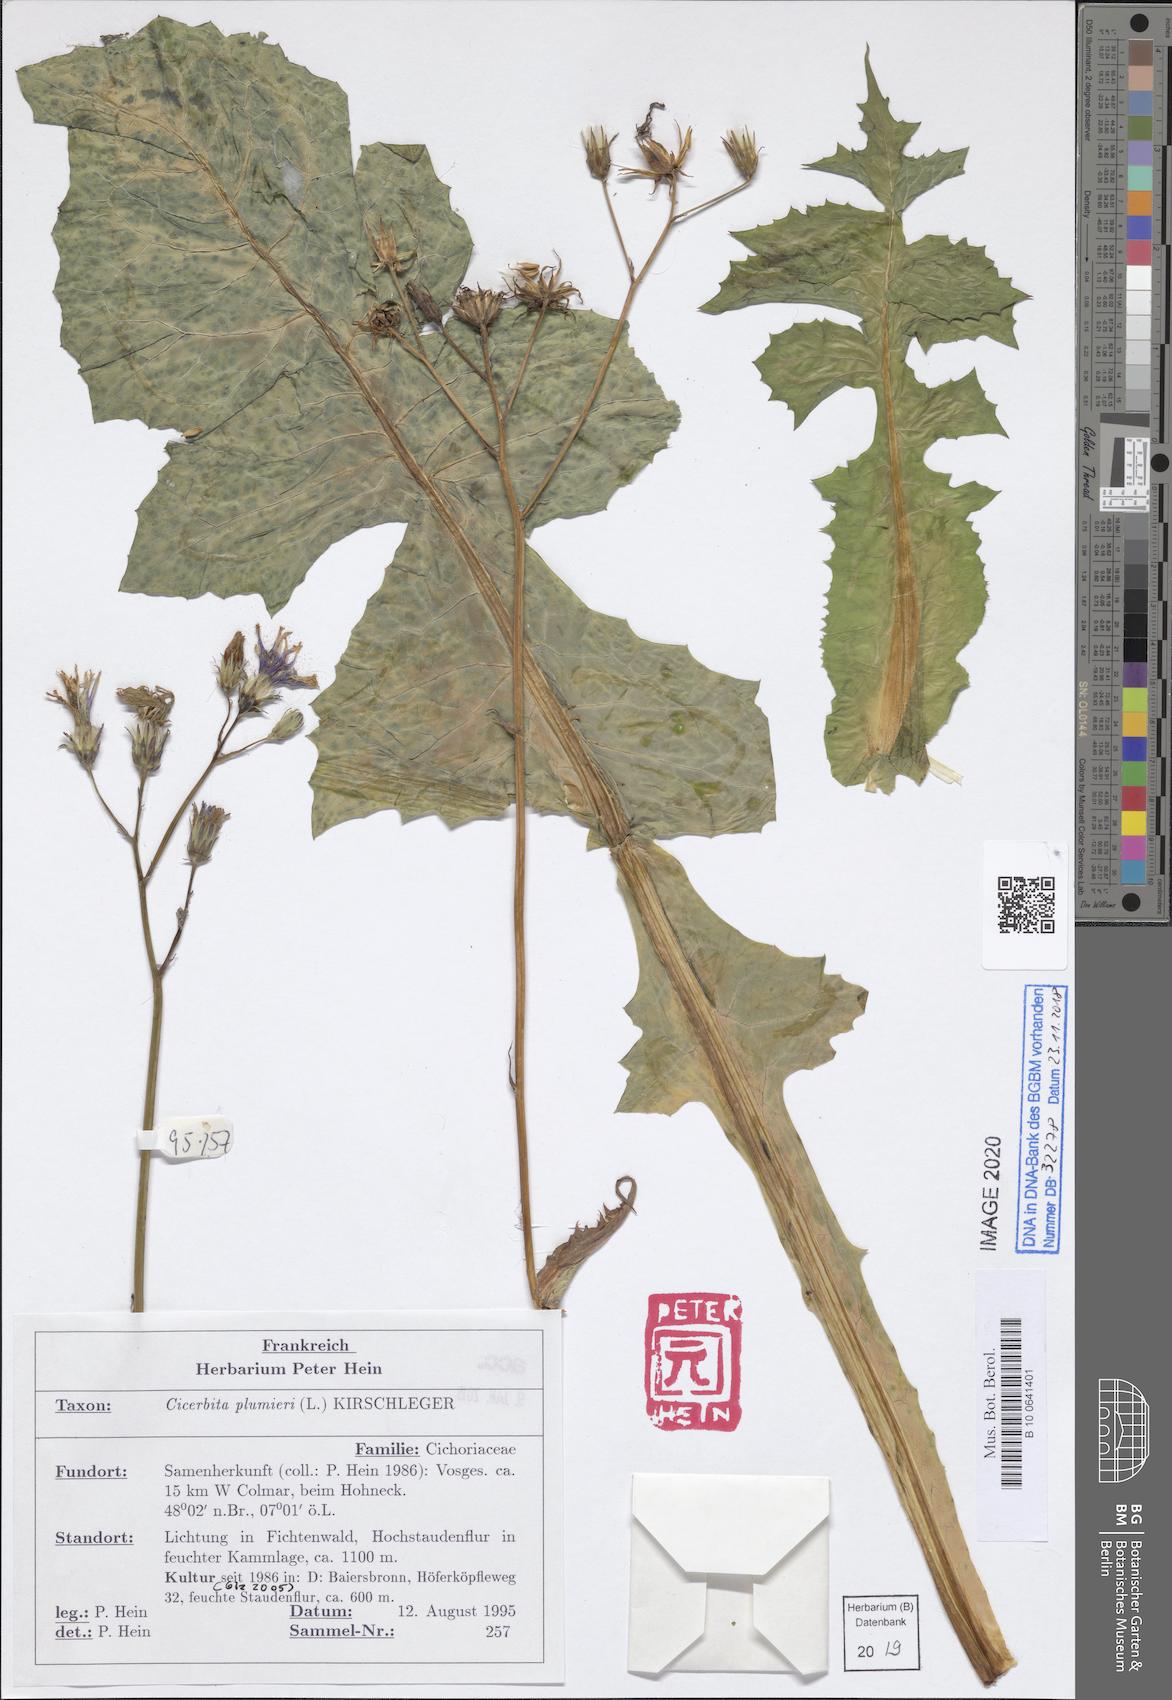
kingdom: Plantae
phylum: Tracheophyta
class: Magnoliopsida
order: Asterales
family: Asteraceae
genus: Lactuca
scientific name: Lactuca plumieri
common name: Hairless blue-sow-thistle
